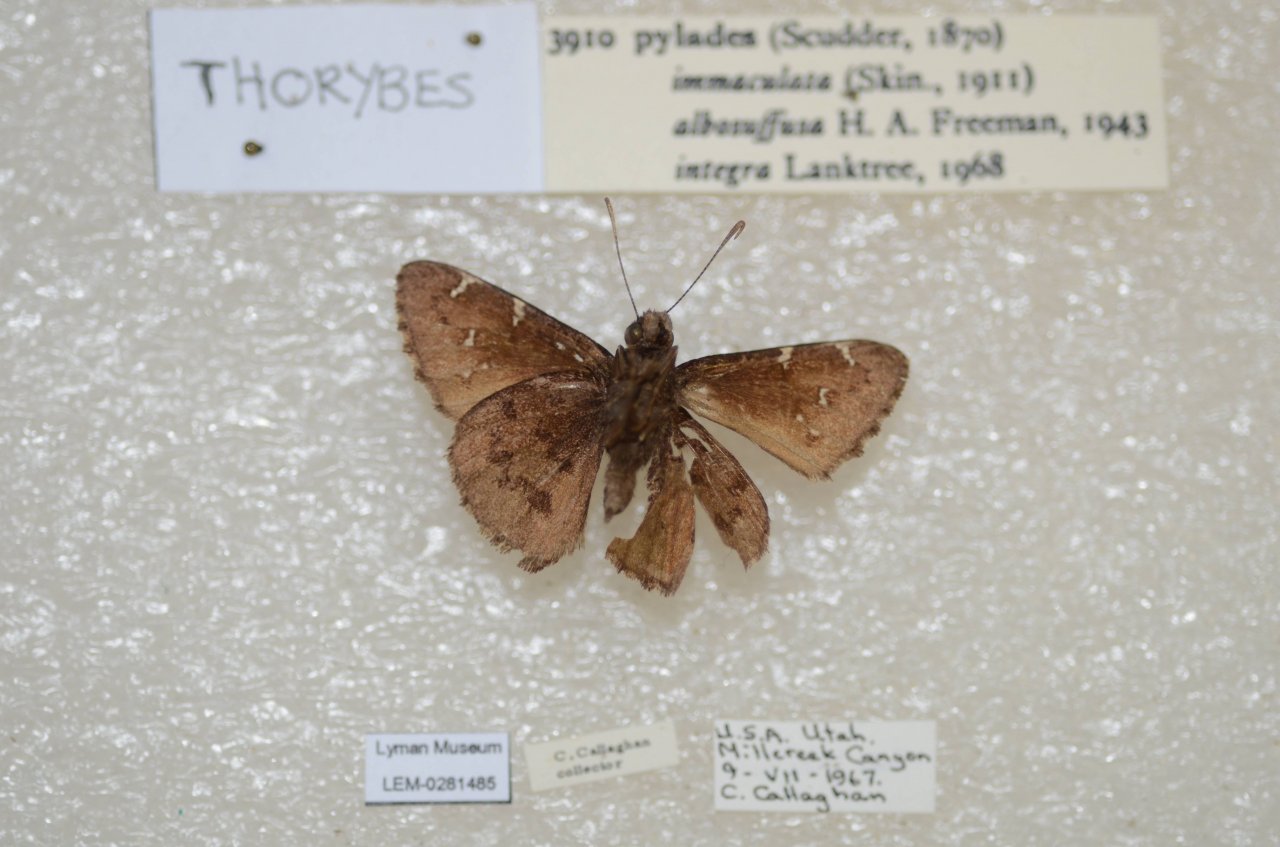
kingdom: Animalia
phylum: Arthropoda
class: Insecta
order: Lepidoptera
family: Hesperiidae
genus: Autochton
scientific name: Autochton
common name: Northern Cloudywing
